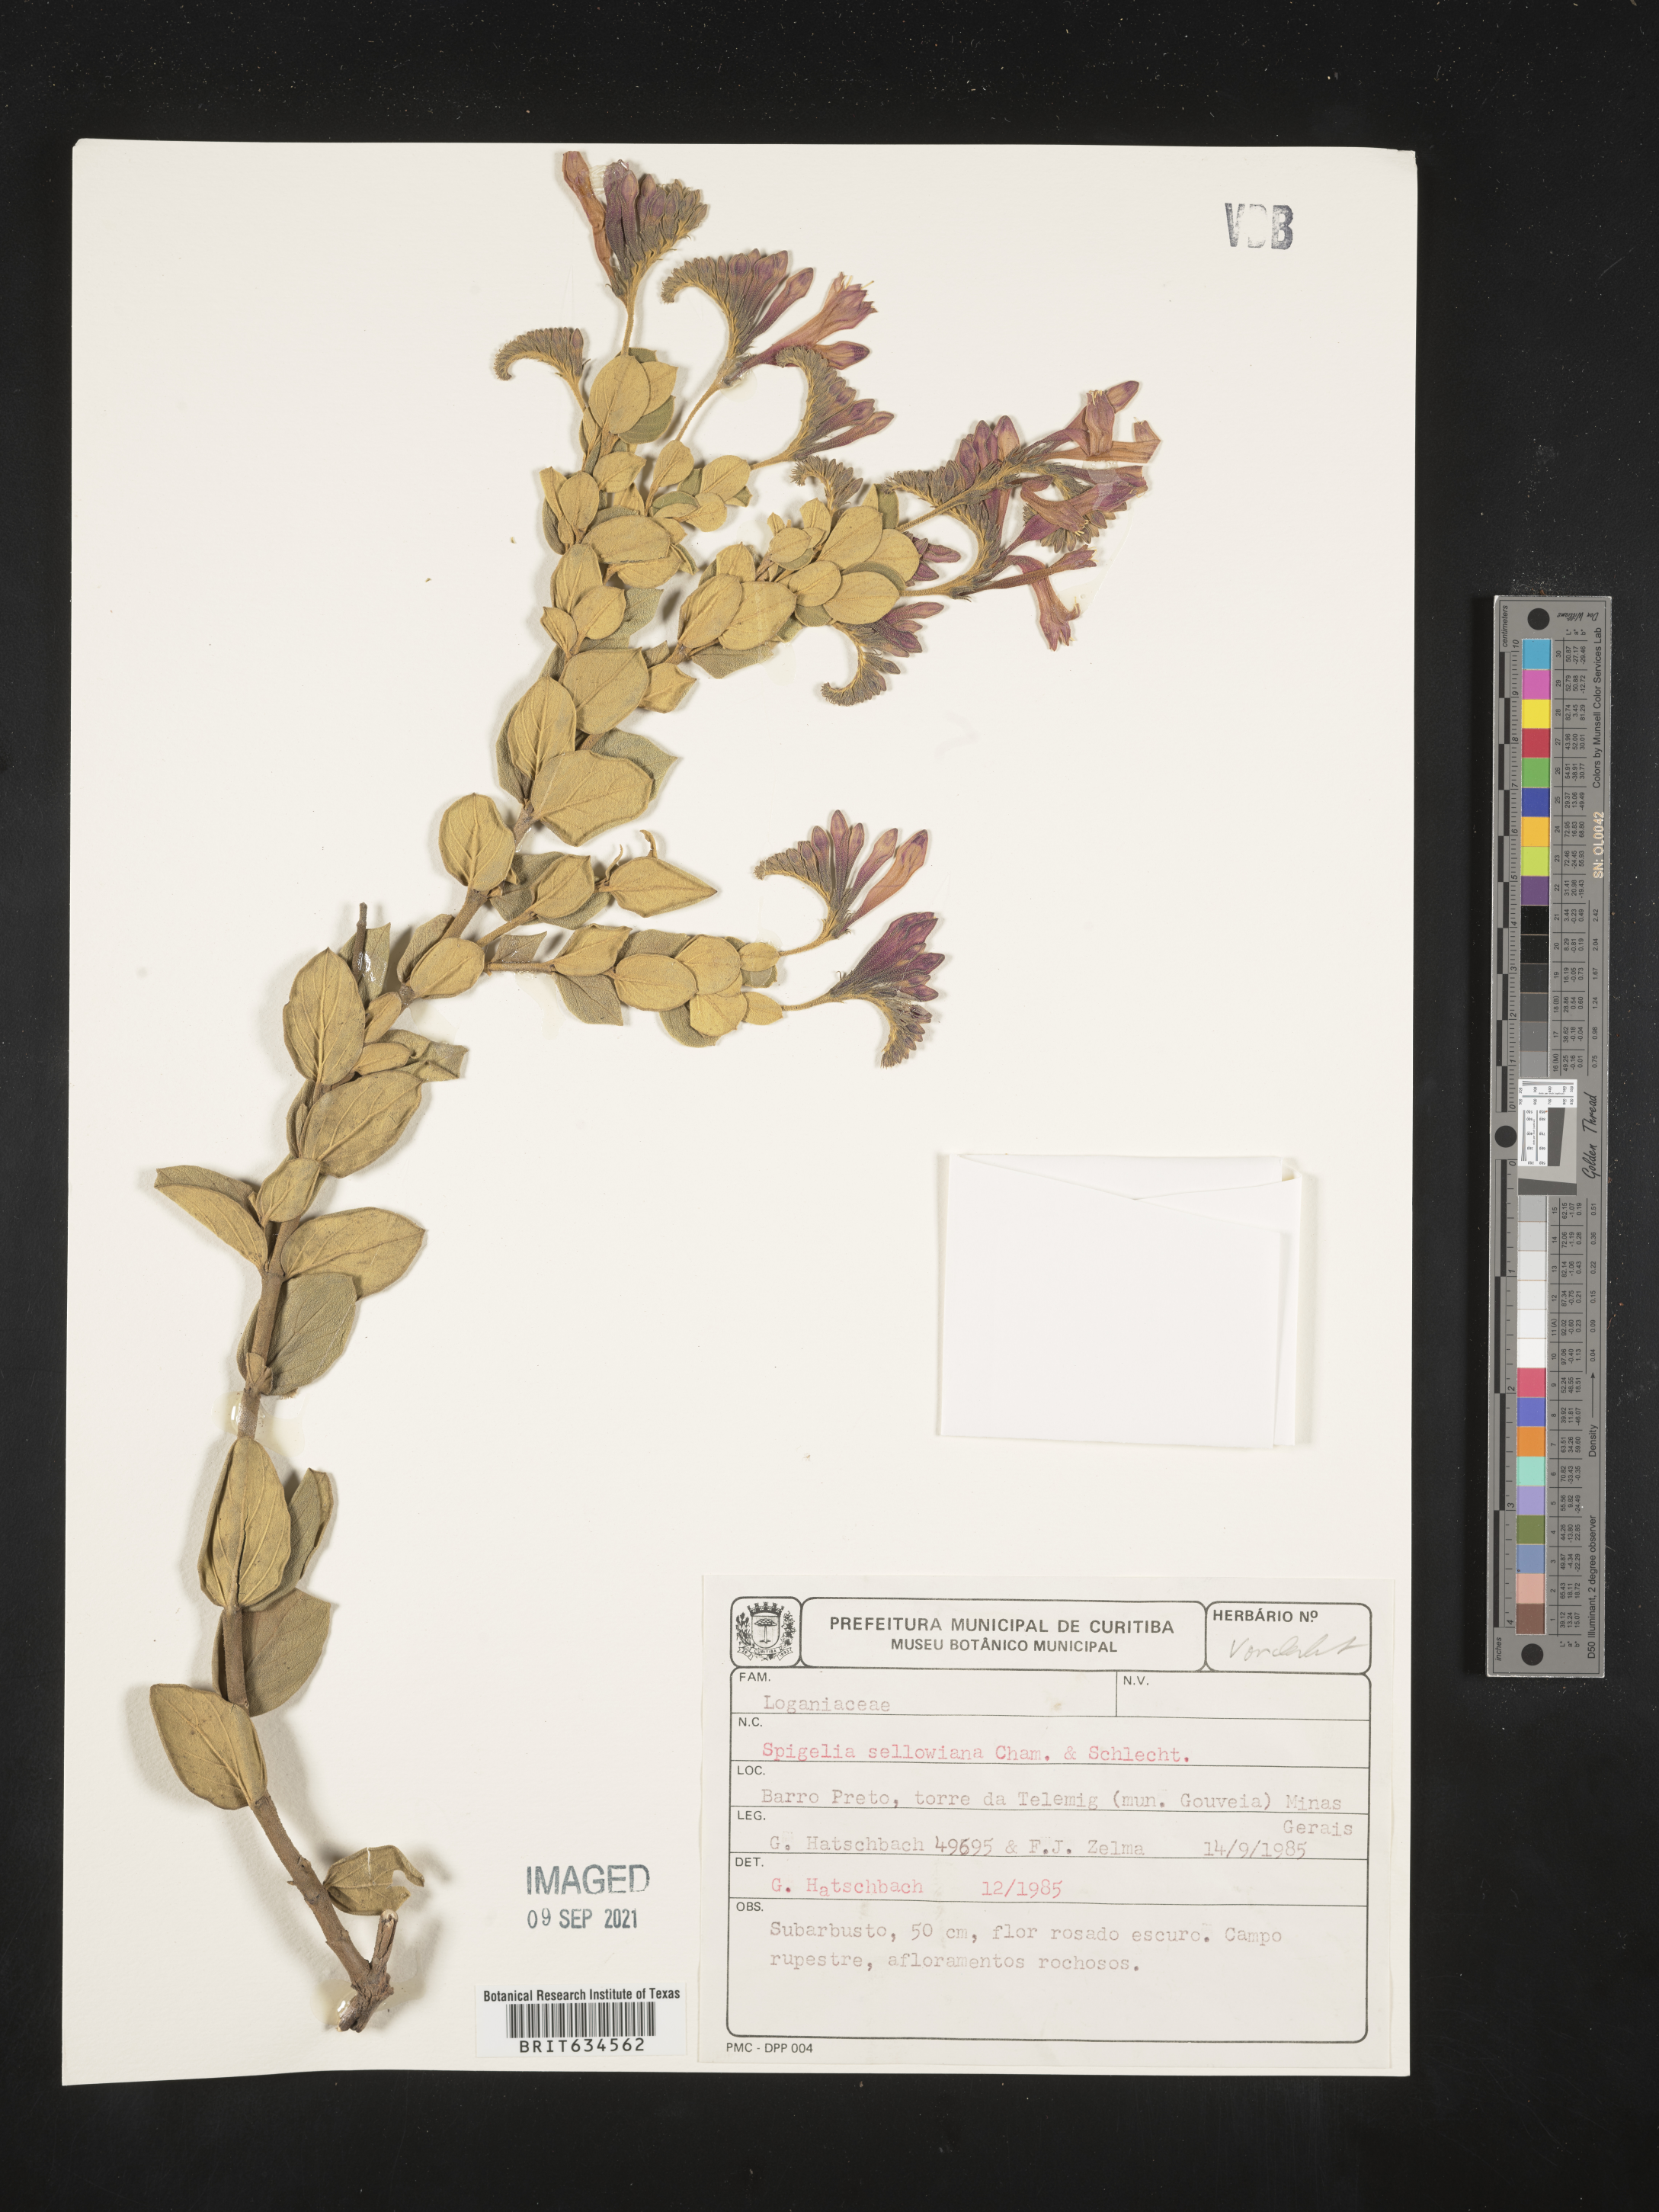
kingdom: Plantae
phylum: Tracheophyta
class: Magnoliopsida
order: Gentianales
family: Loganiaceae
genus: Spigelia
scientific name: Spigelia
